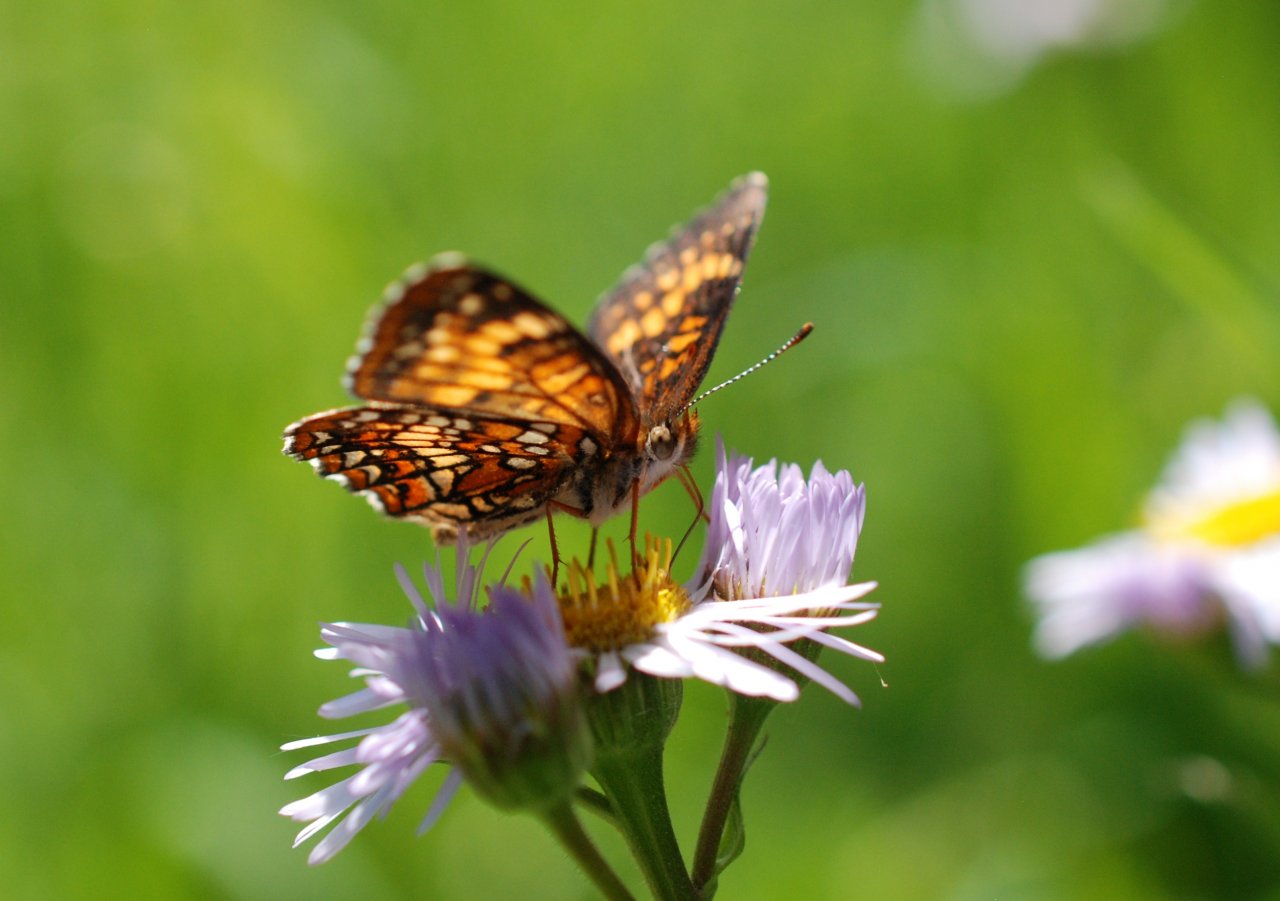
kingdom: Animalia
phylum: Arthropoda
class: Insecta
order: Lepidoptera
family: Nymphalidae
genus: Chlosyne
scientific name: Chlosyne harrisii
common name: Harris's Checkerspot
